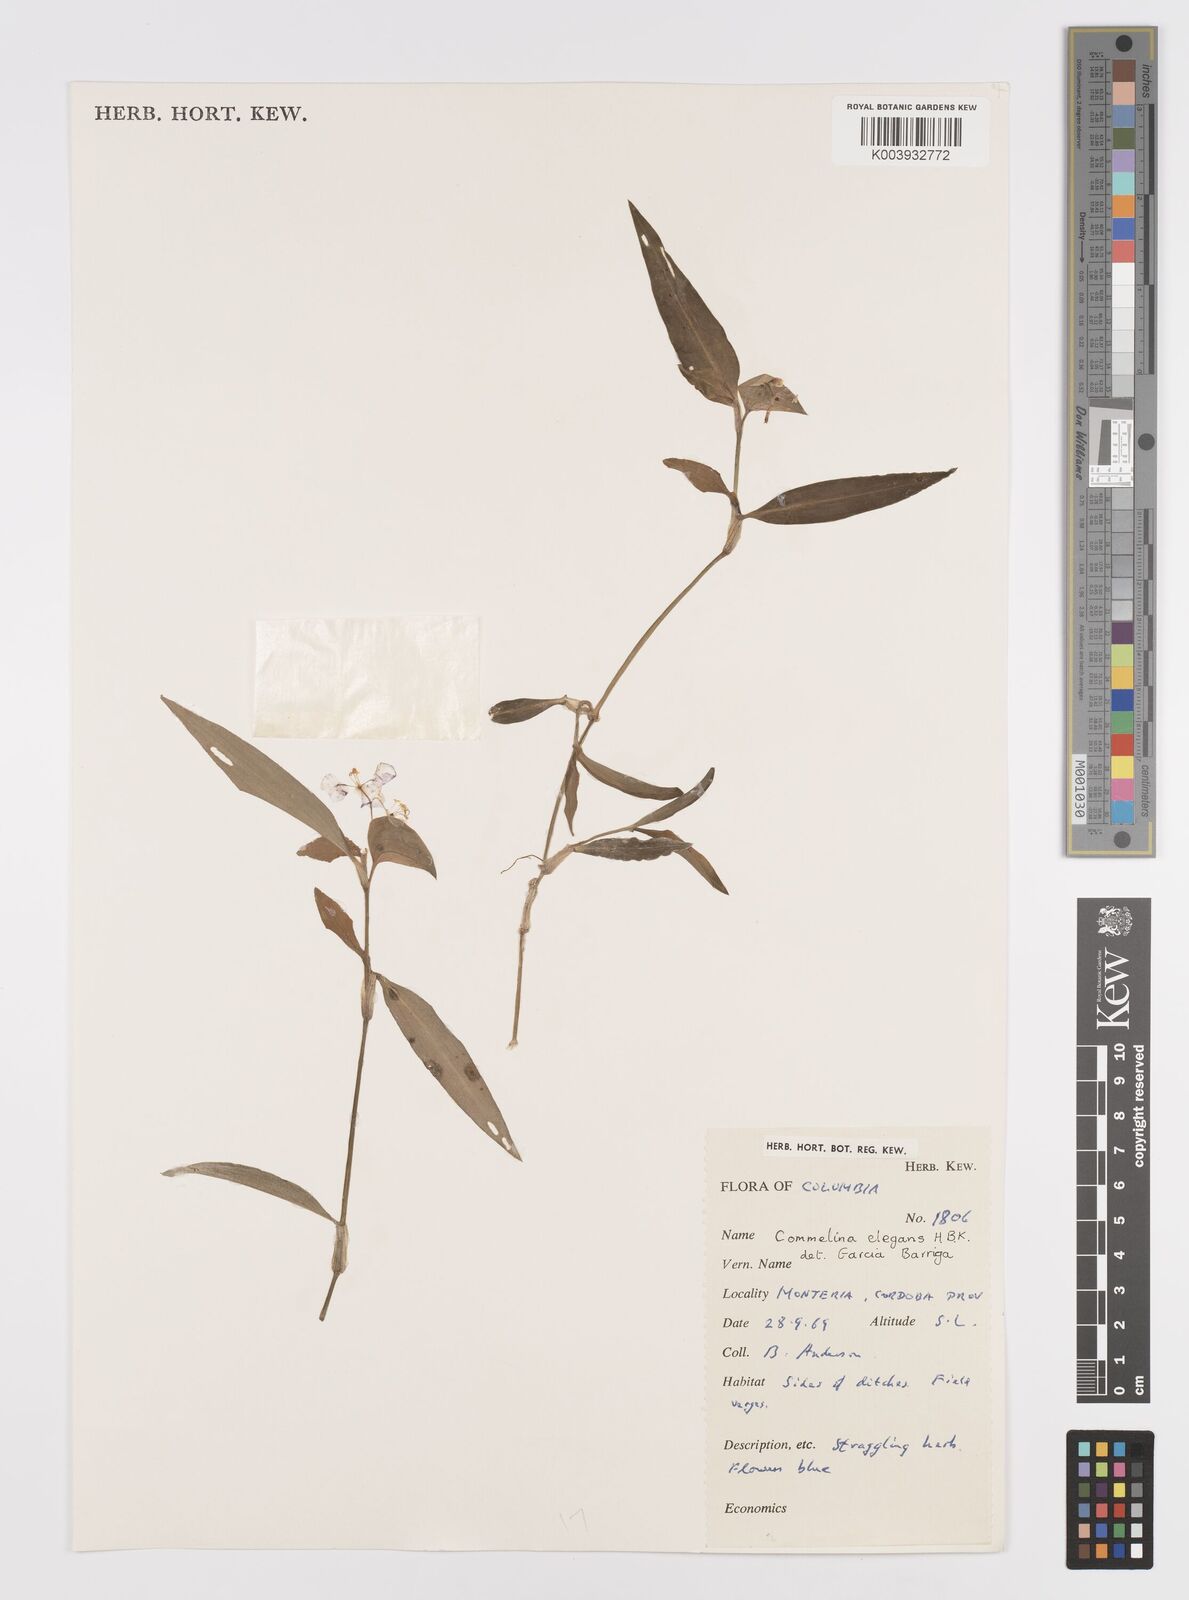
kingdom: Plantae
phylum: Tracheophyta
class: Liliopsida
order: Commelinales
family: Commelinaceae
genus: Commelina
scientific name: Commelina virginica
